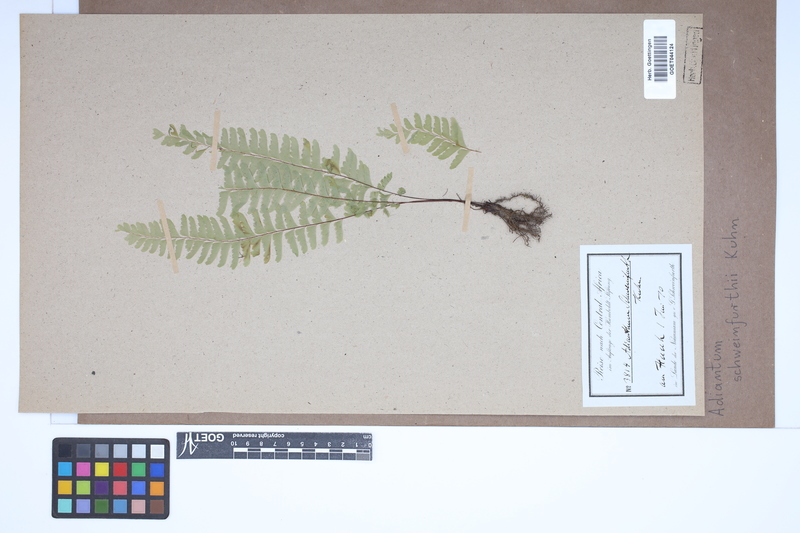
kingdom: Plantae
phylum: Tracheophyta
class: Polypodiopsida
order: Polypodiales
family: Pteridaceae
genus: Adiantum
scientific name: Adiantum schweinfurthii
